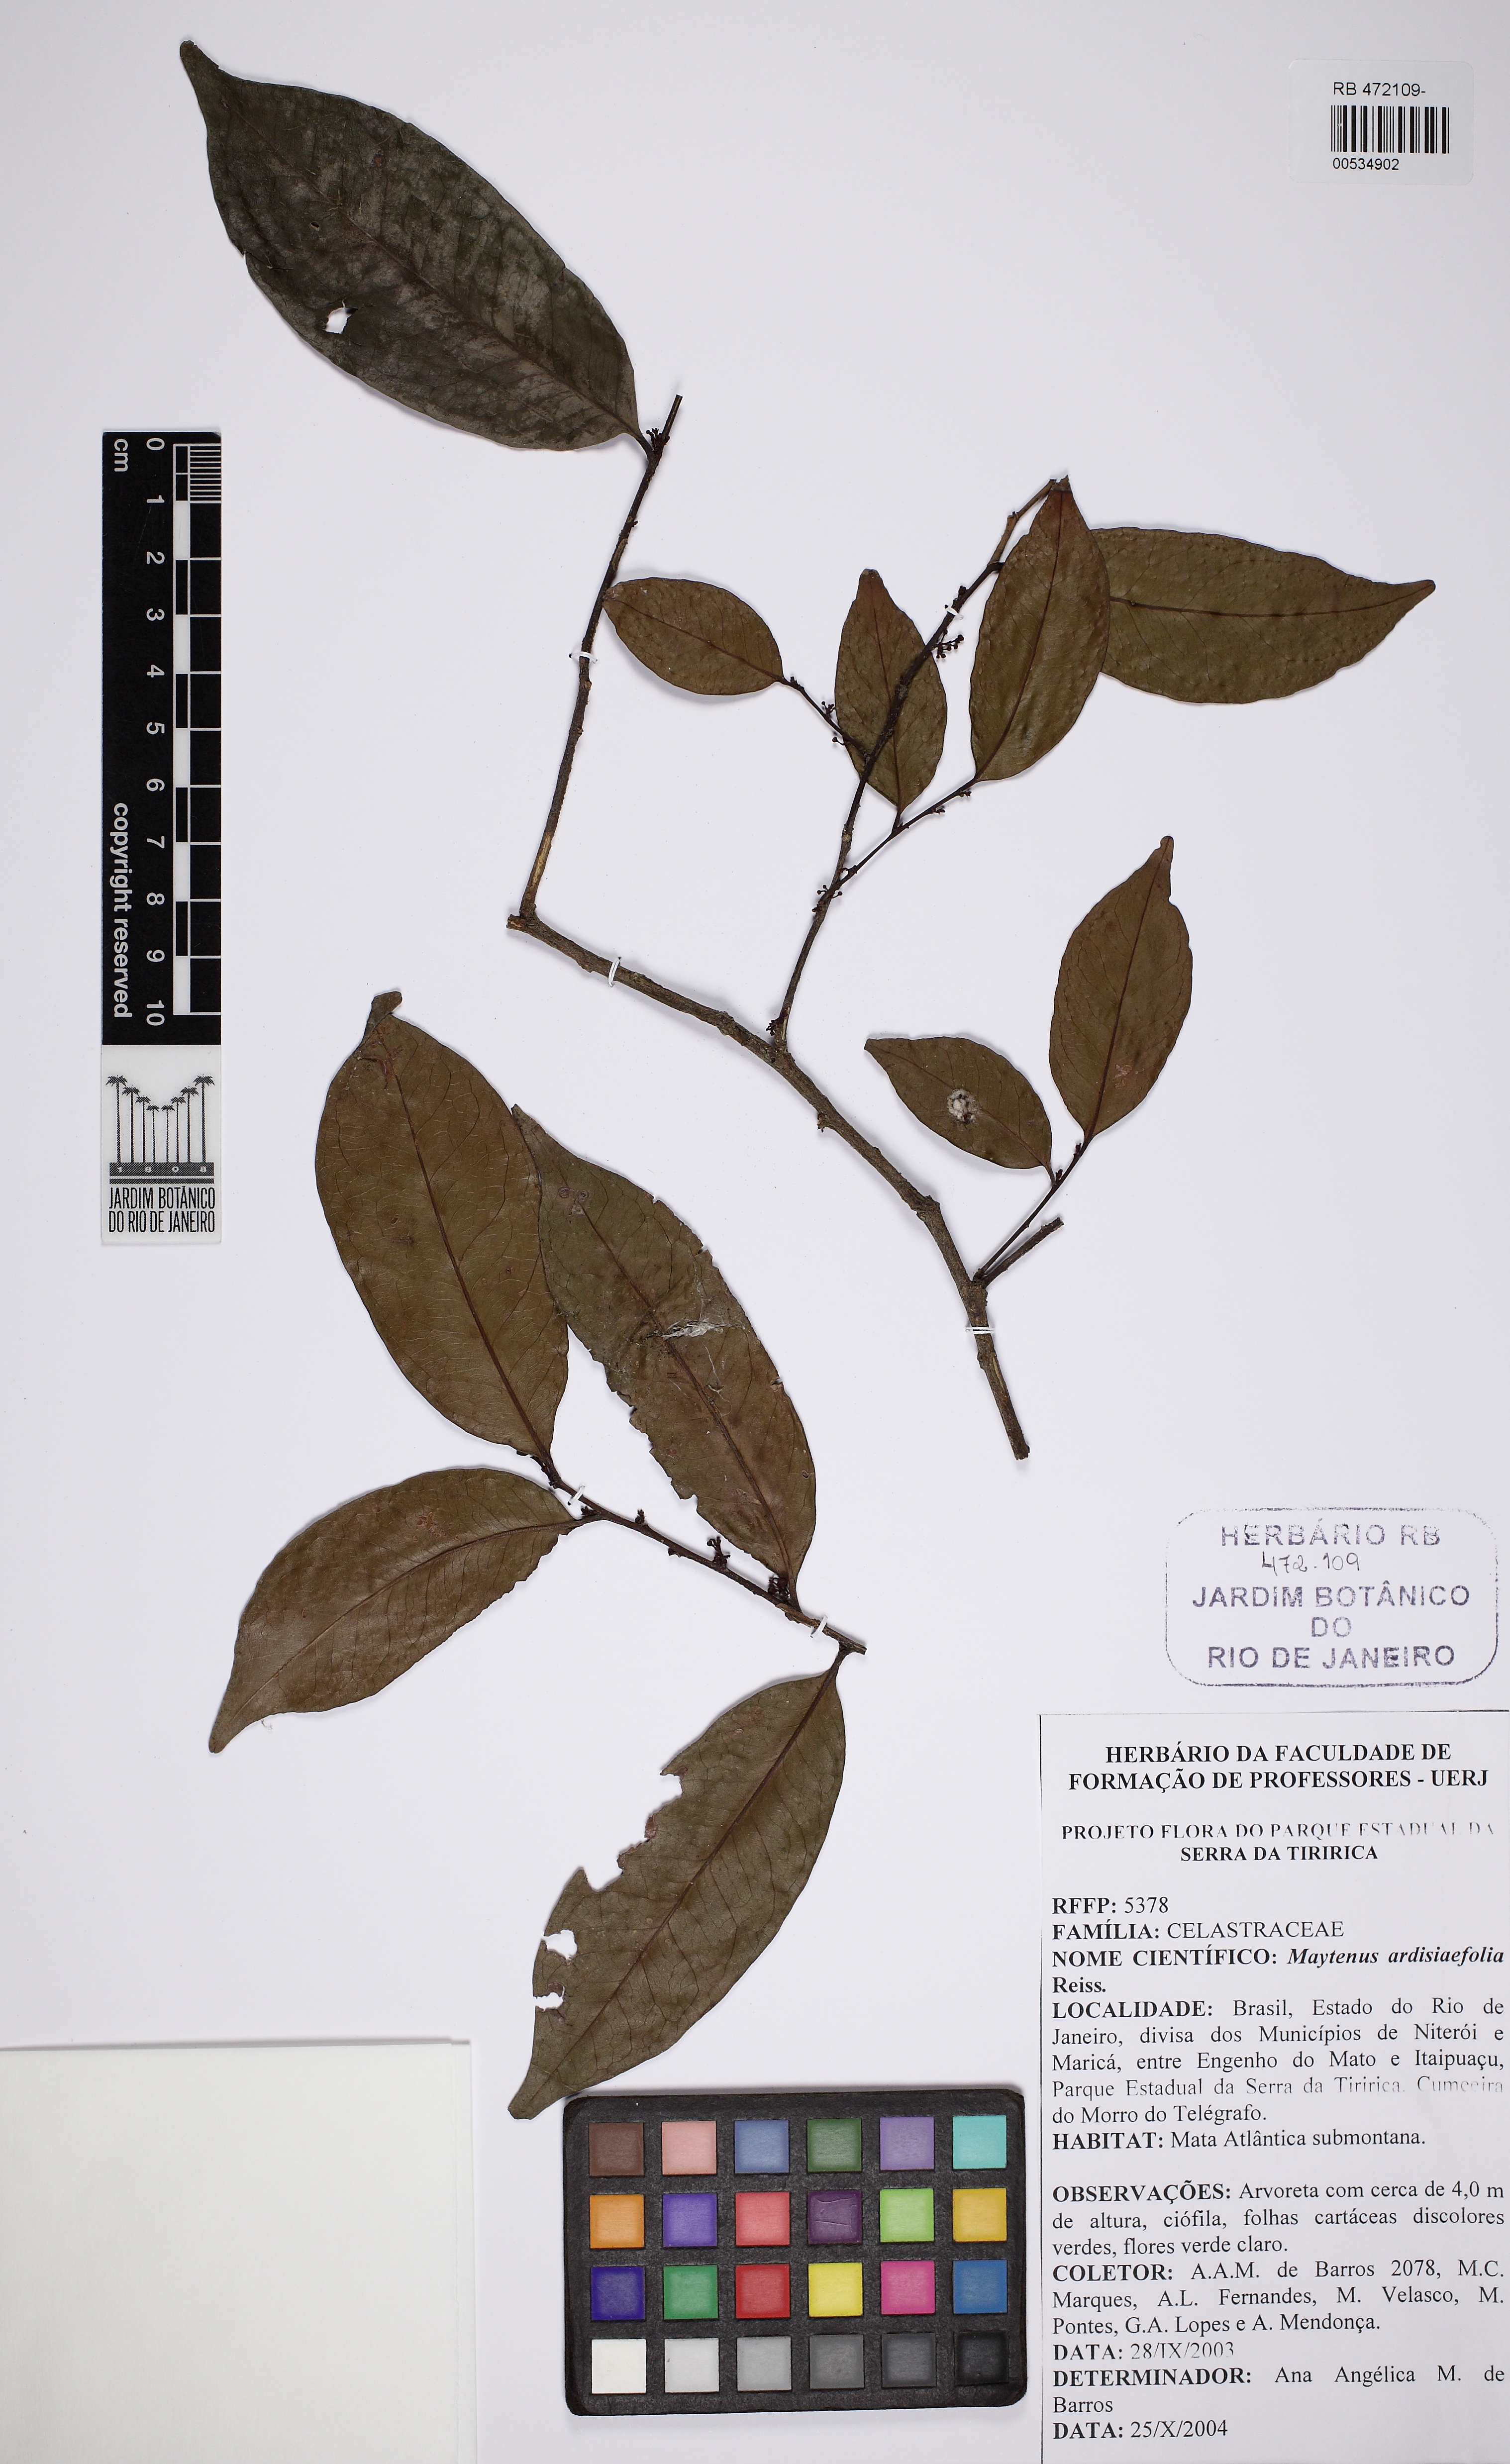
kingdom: Plantae
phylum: Tracheophyta
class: Magnoliopsida
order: Celastrales
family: Celastraceae
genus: Monteverdia
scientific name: Monteverdia communis
